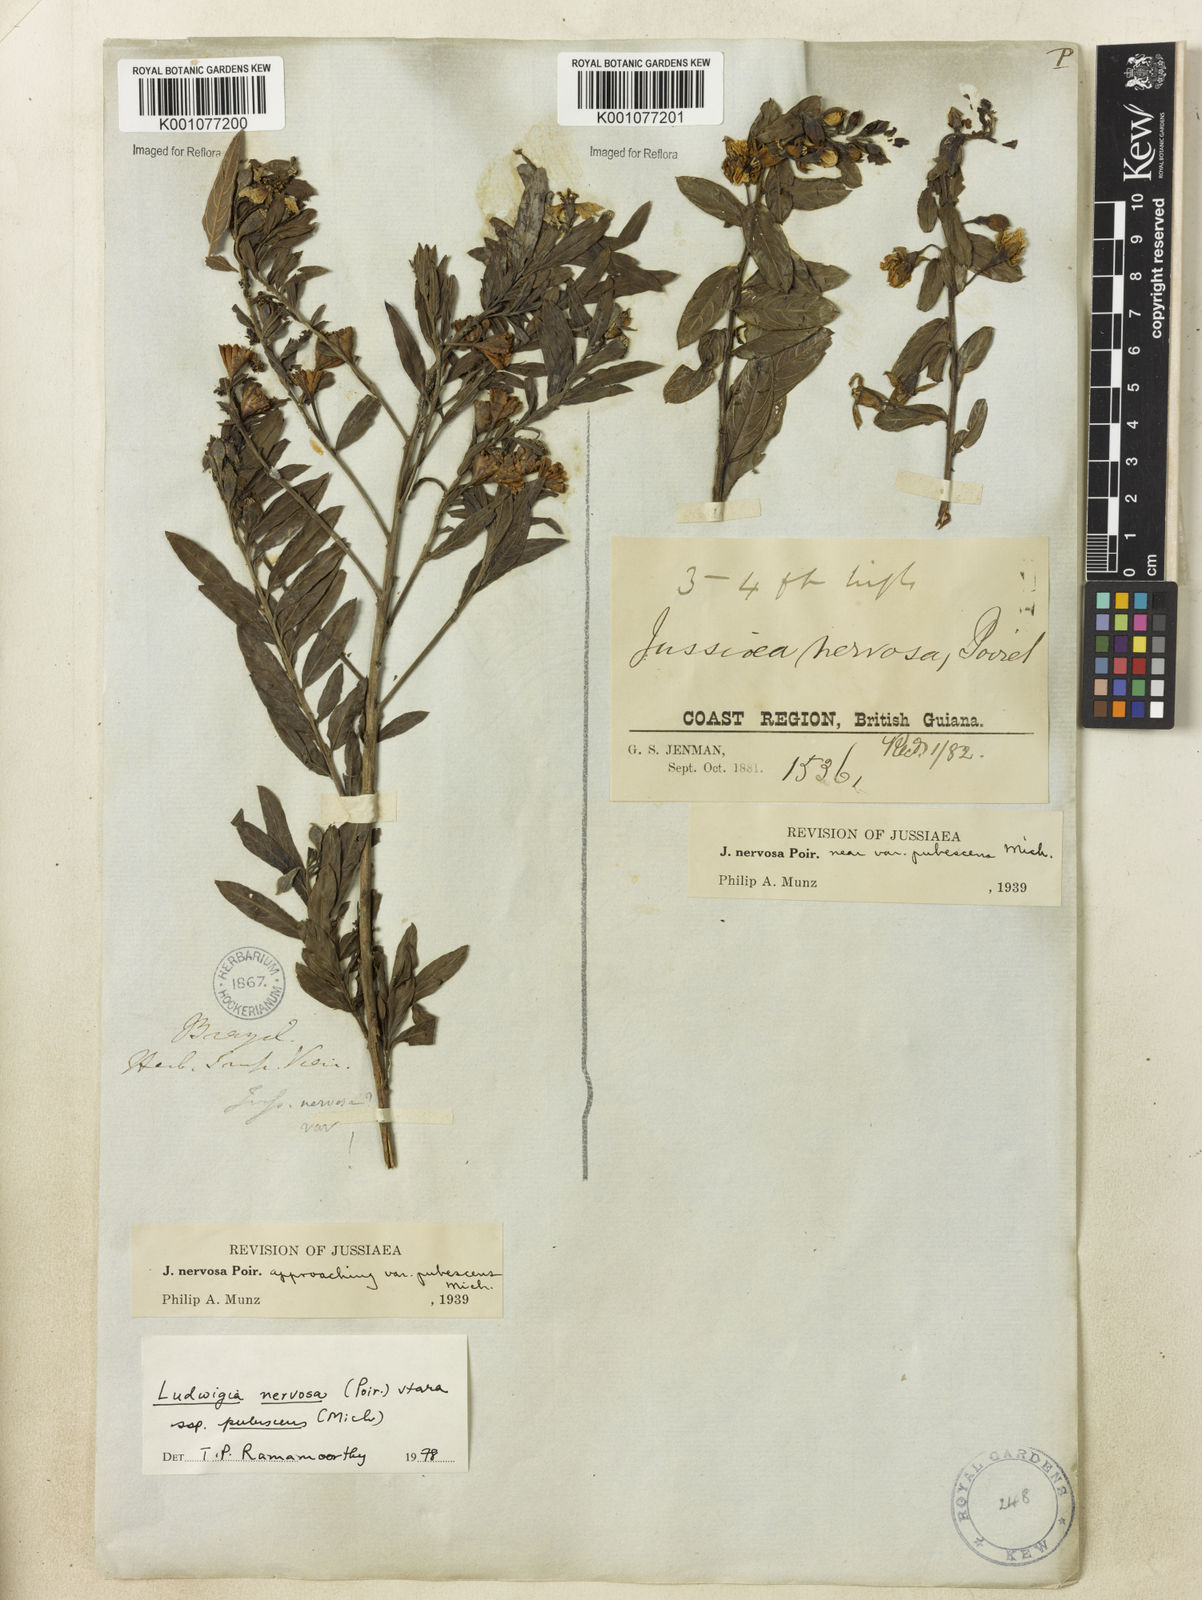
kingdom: Plantae
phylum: Tracheophyta
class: Magnoliopsida
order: Myrtales
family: Onagraceae
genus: Ludwigia
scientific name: Ludwigia nervosa
